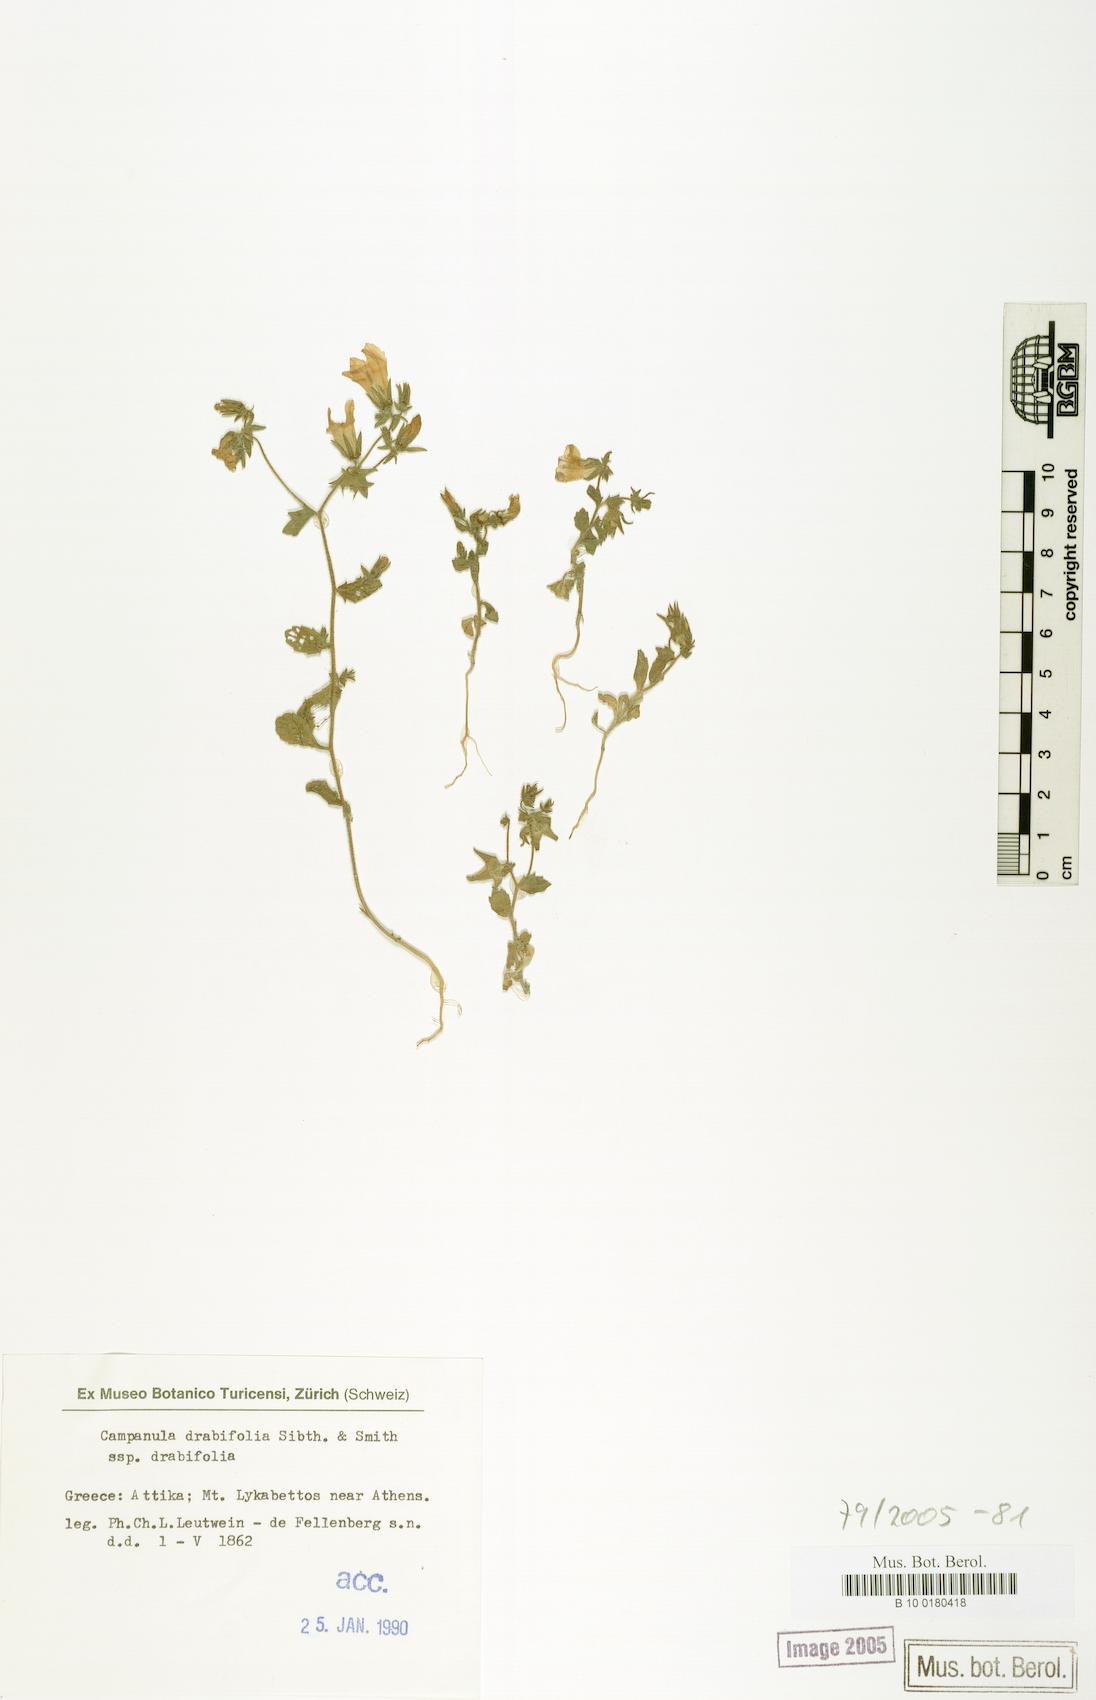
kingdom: Plantae
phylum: Tracheophyta
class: Magnoliopsida
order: Asterales
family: Campanulaceae
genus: Campanula
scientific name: Campanula drabifolia
